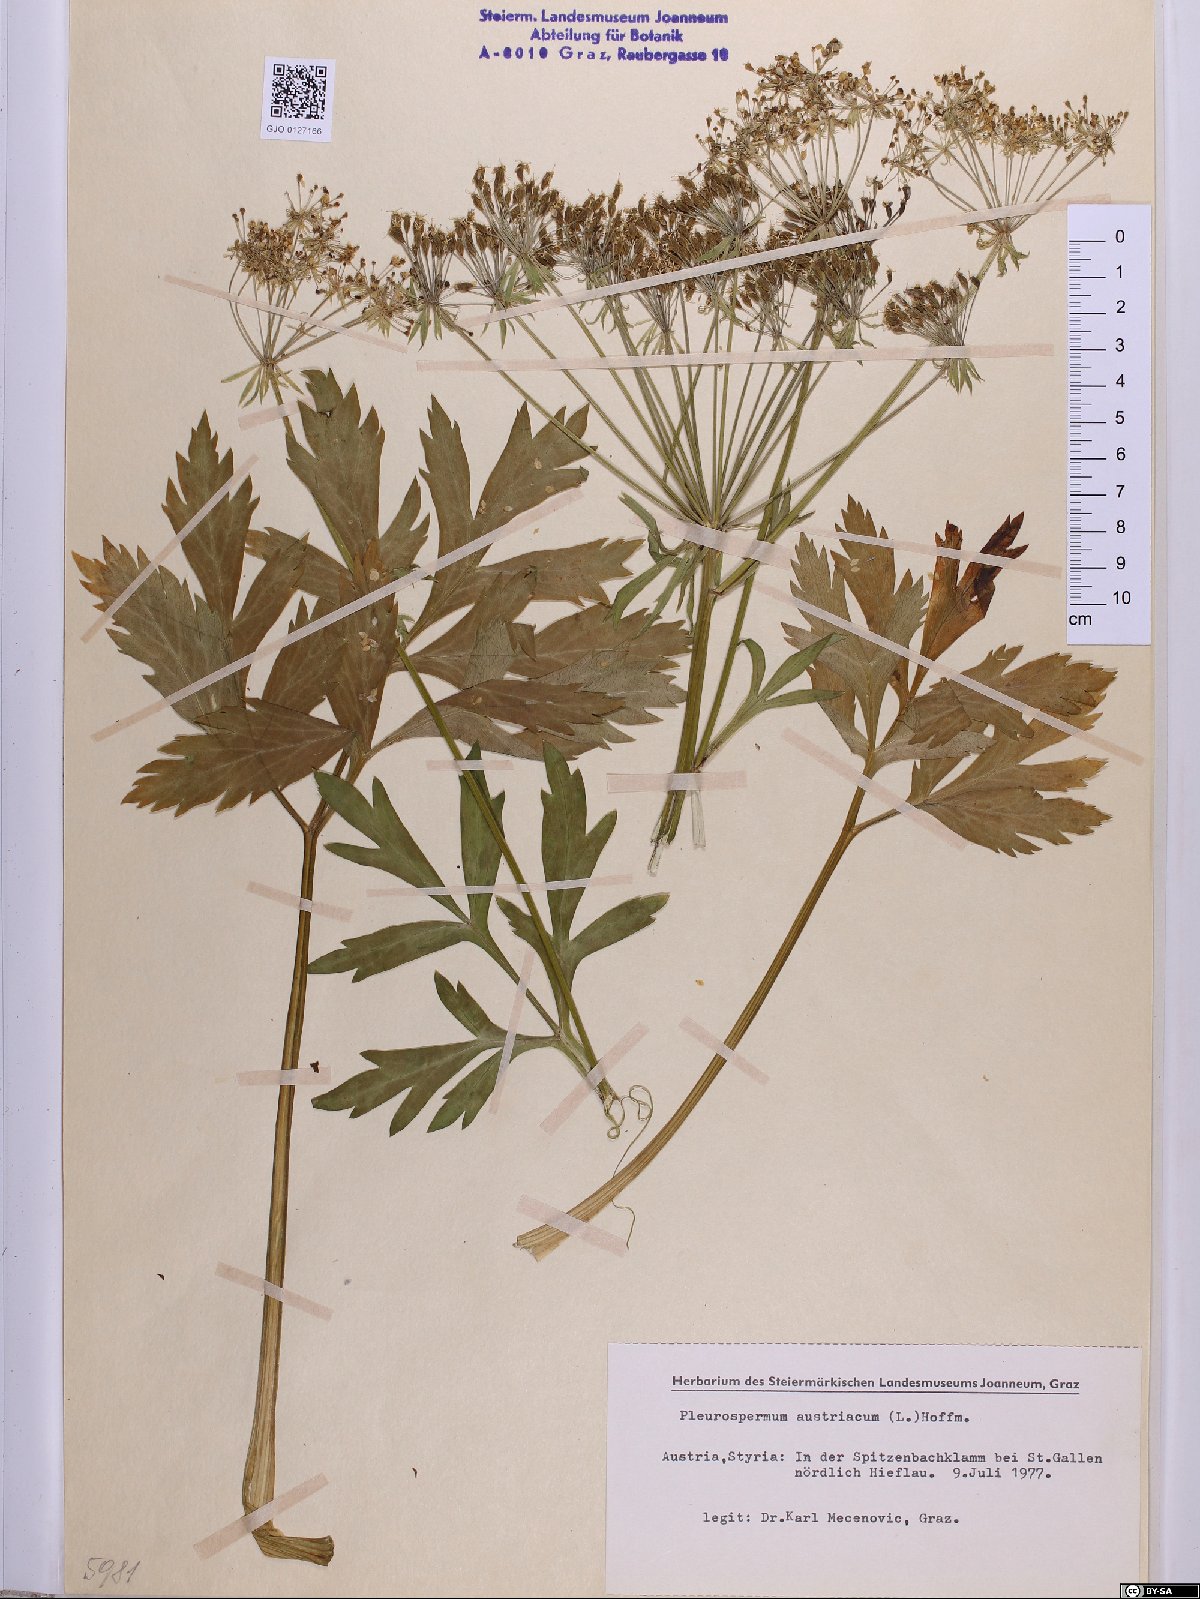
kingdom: Plantae
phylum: Tracheophyta
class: Magnoliopsida
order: Apiales
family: Apiaceae
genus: Pleurospermum
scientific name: Pleurospermum austriacum
